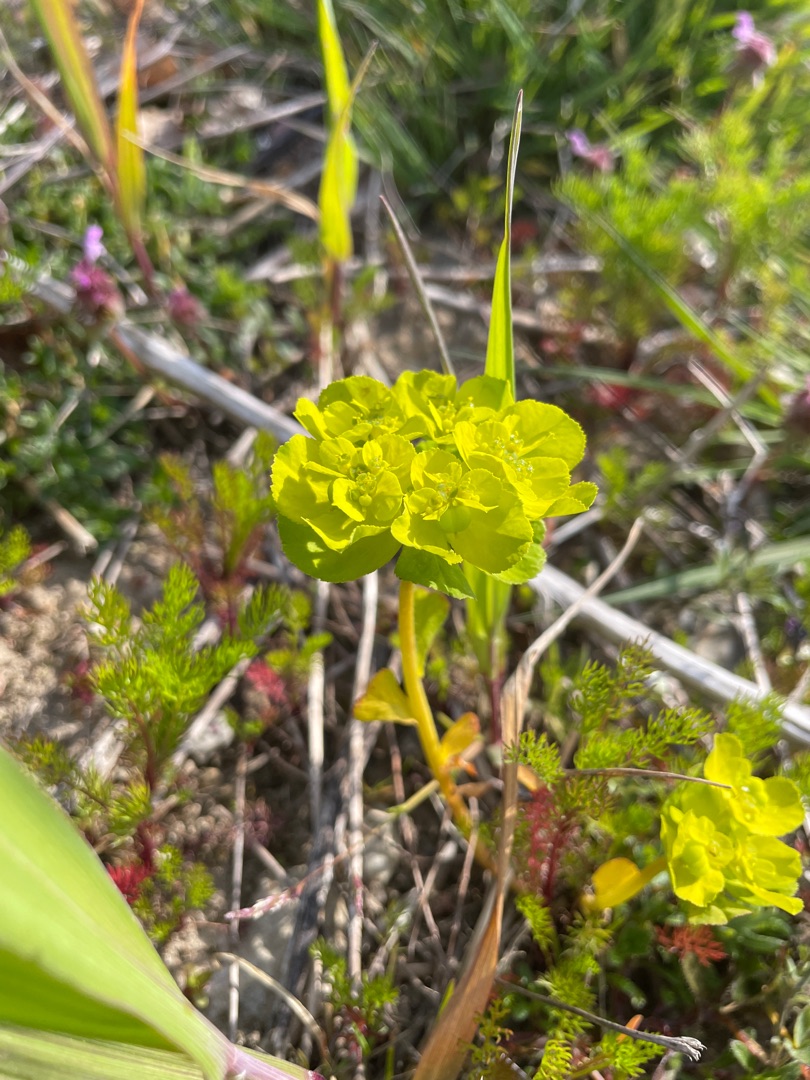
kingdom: Plantae
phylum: Tracheophyta
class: Magnoliopsida
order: Malpighiales
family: Euphorbiaceae
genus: Euphorbia
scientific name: Euphorbia helioscopia
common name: Skærm-vortemælk
